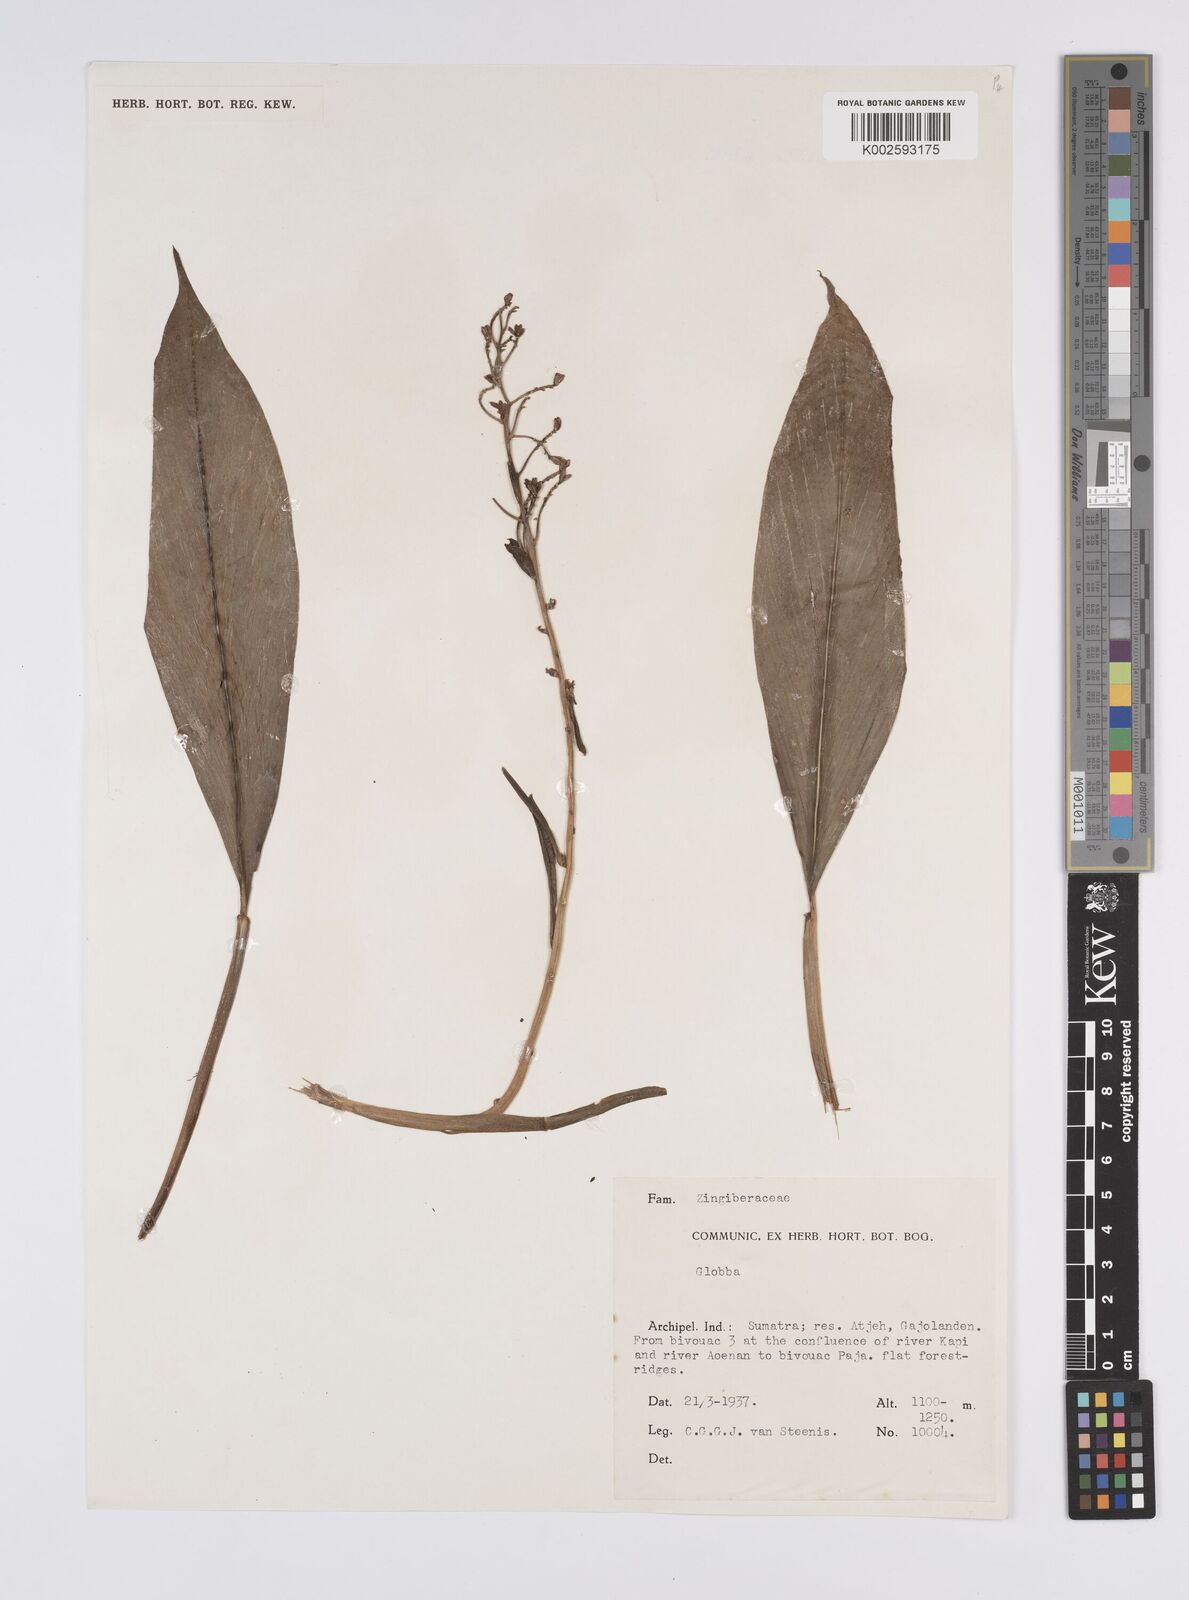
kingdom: Plantae
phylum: Tracheophyta
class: Liliopsida
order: Zingiberales
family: Zingiberaceae
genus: Globba
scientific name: Globba
